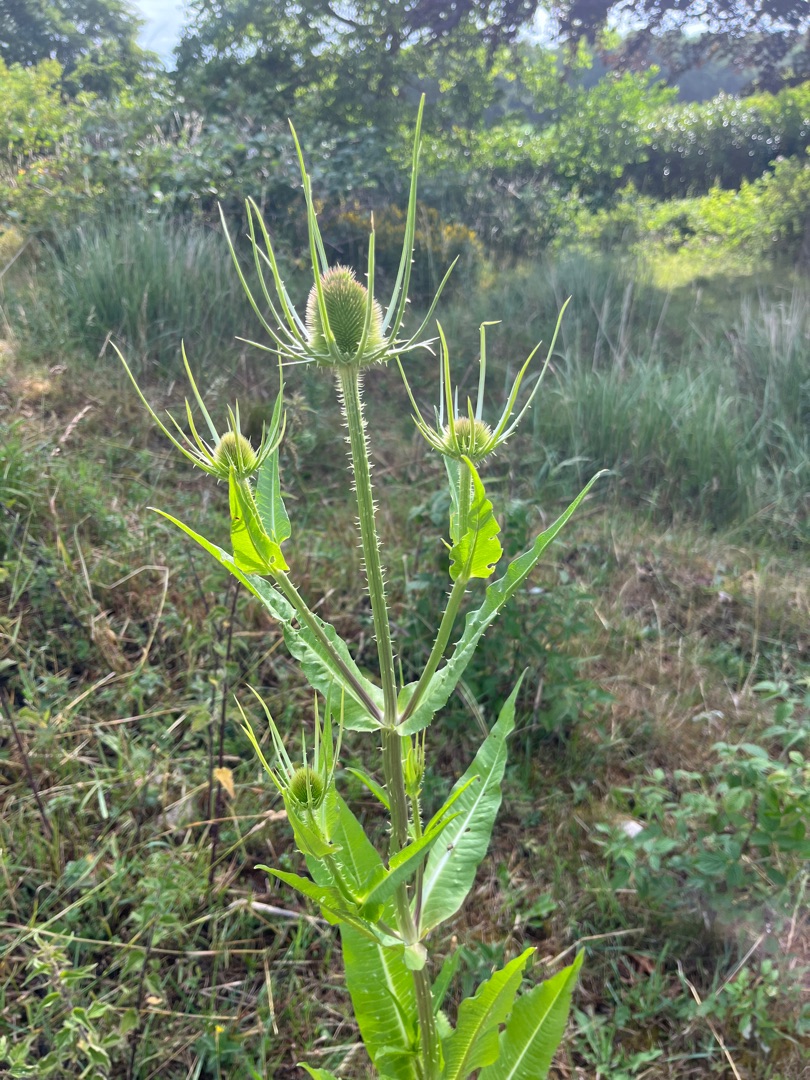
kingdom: Plantae
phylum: Tracheophyta
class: Magnoliopsida
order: Dipsacales
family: Caprifoliaceae
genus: Dipsacus
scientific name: Dipsacus fullonum
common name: Gærde-kartebolle
